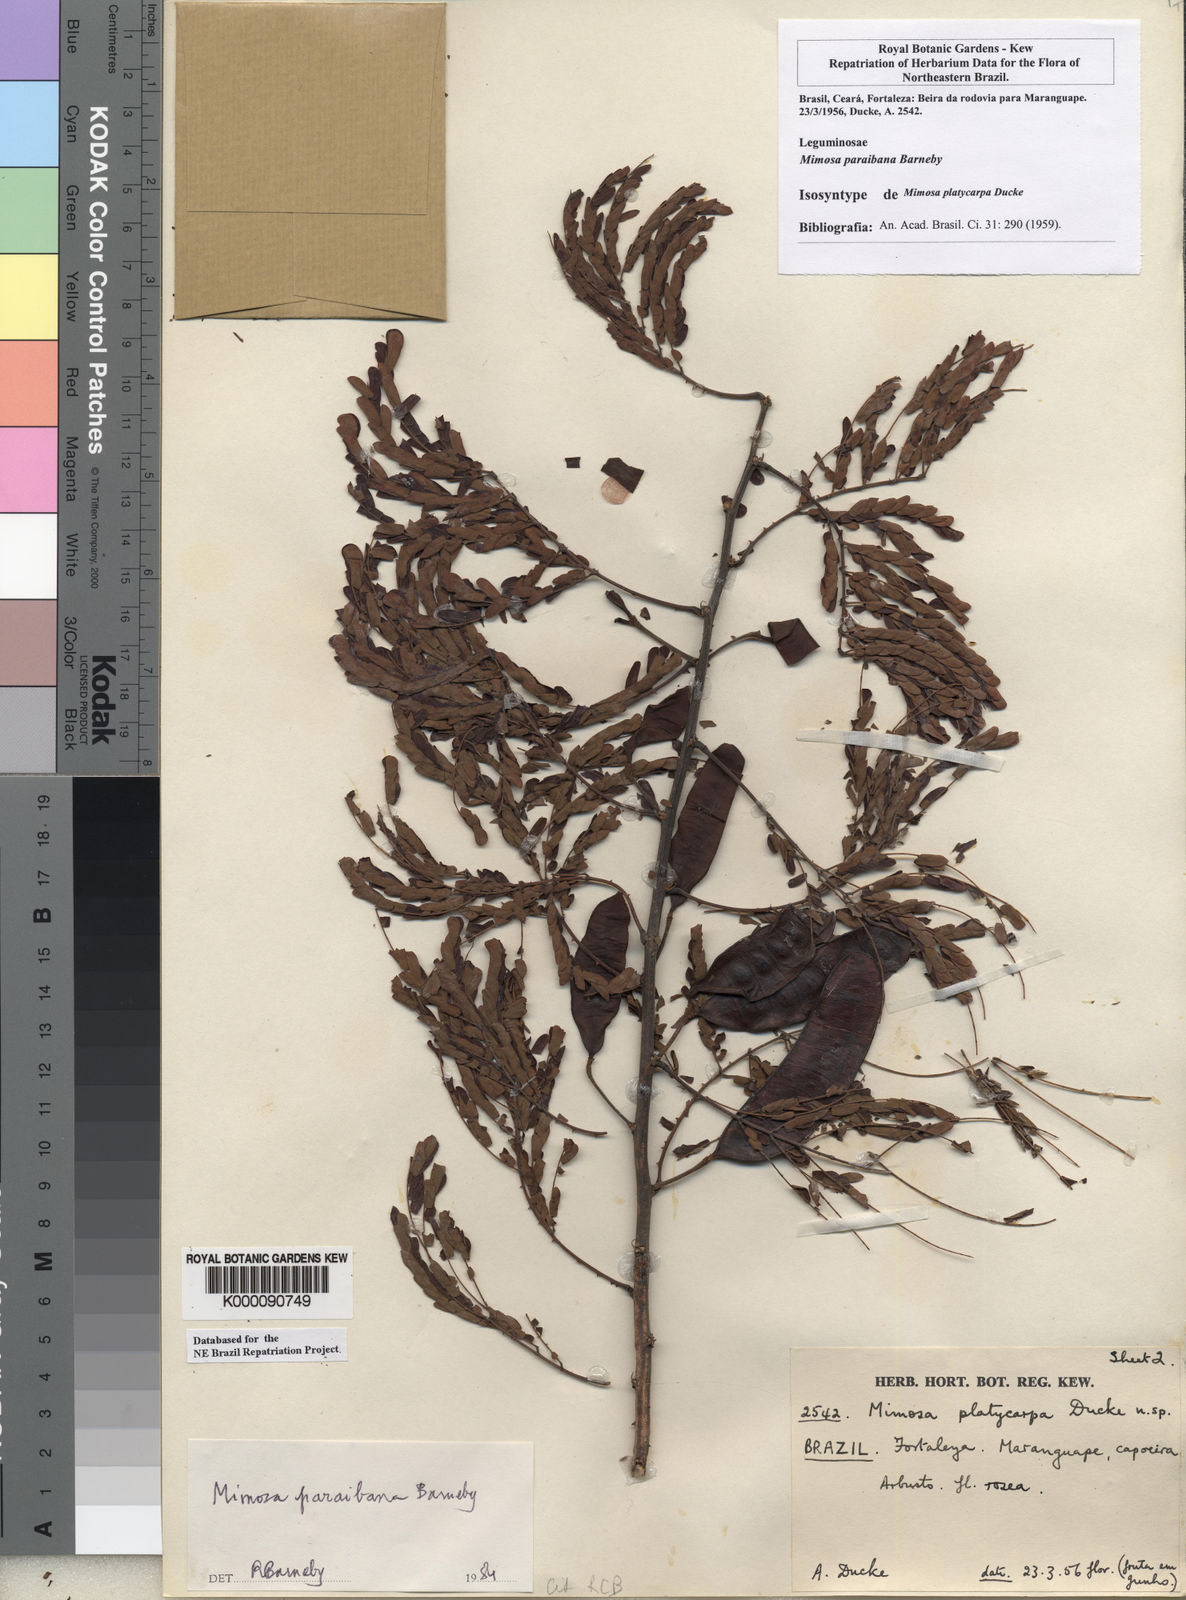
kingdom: Plantae
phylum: Tracheophyta
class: Magnoliopsida
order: Fabales
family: Fabaceae
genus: Mimosa
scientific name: Mimosa paraibana
